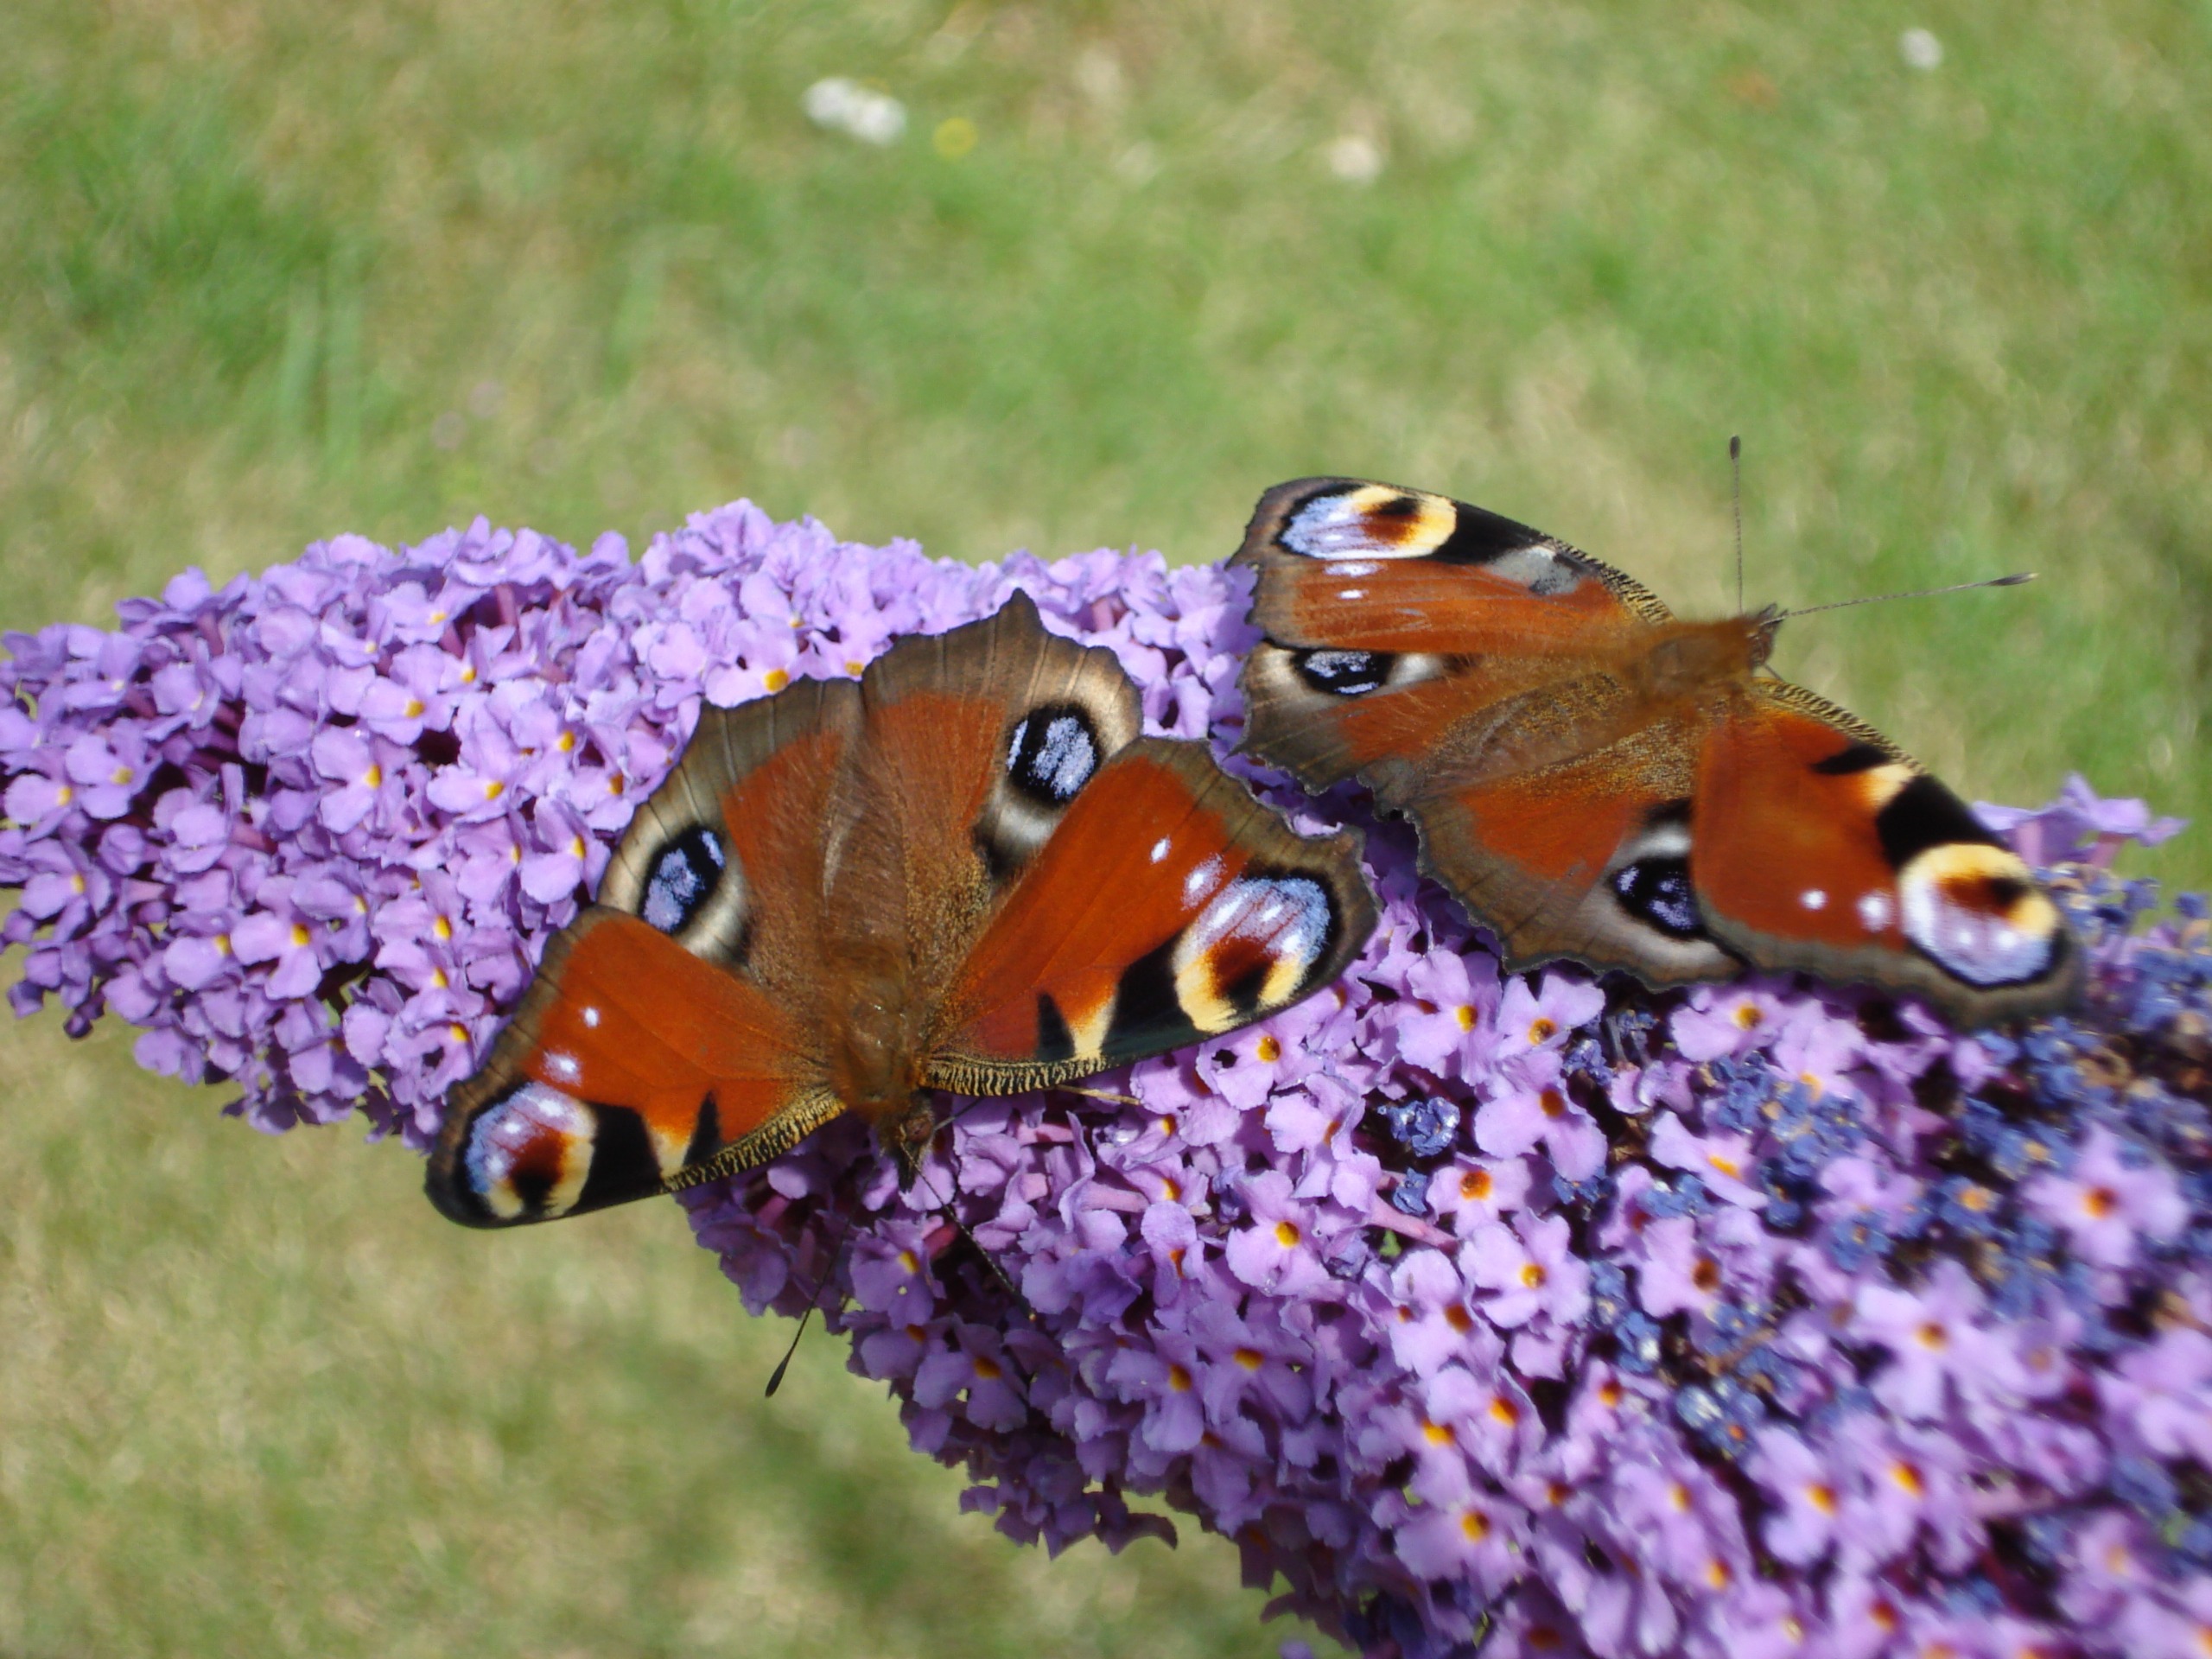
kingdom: Animalia
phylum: Arthropoda
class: Insecta
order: Lepidoptera
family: Nymphalidae
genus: Aglais
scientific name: Aglais io
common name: Dagpåfugleøje
